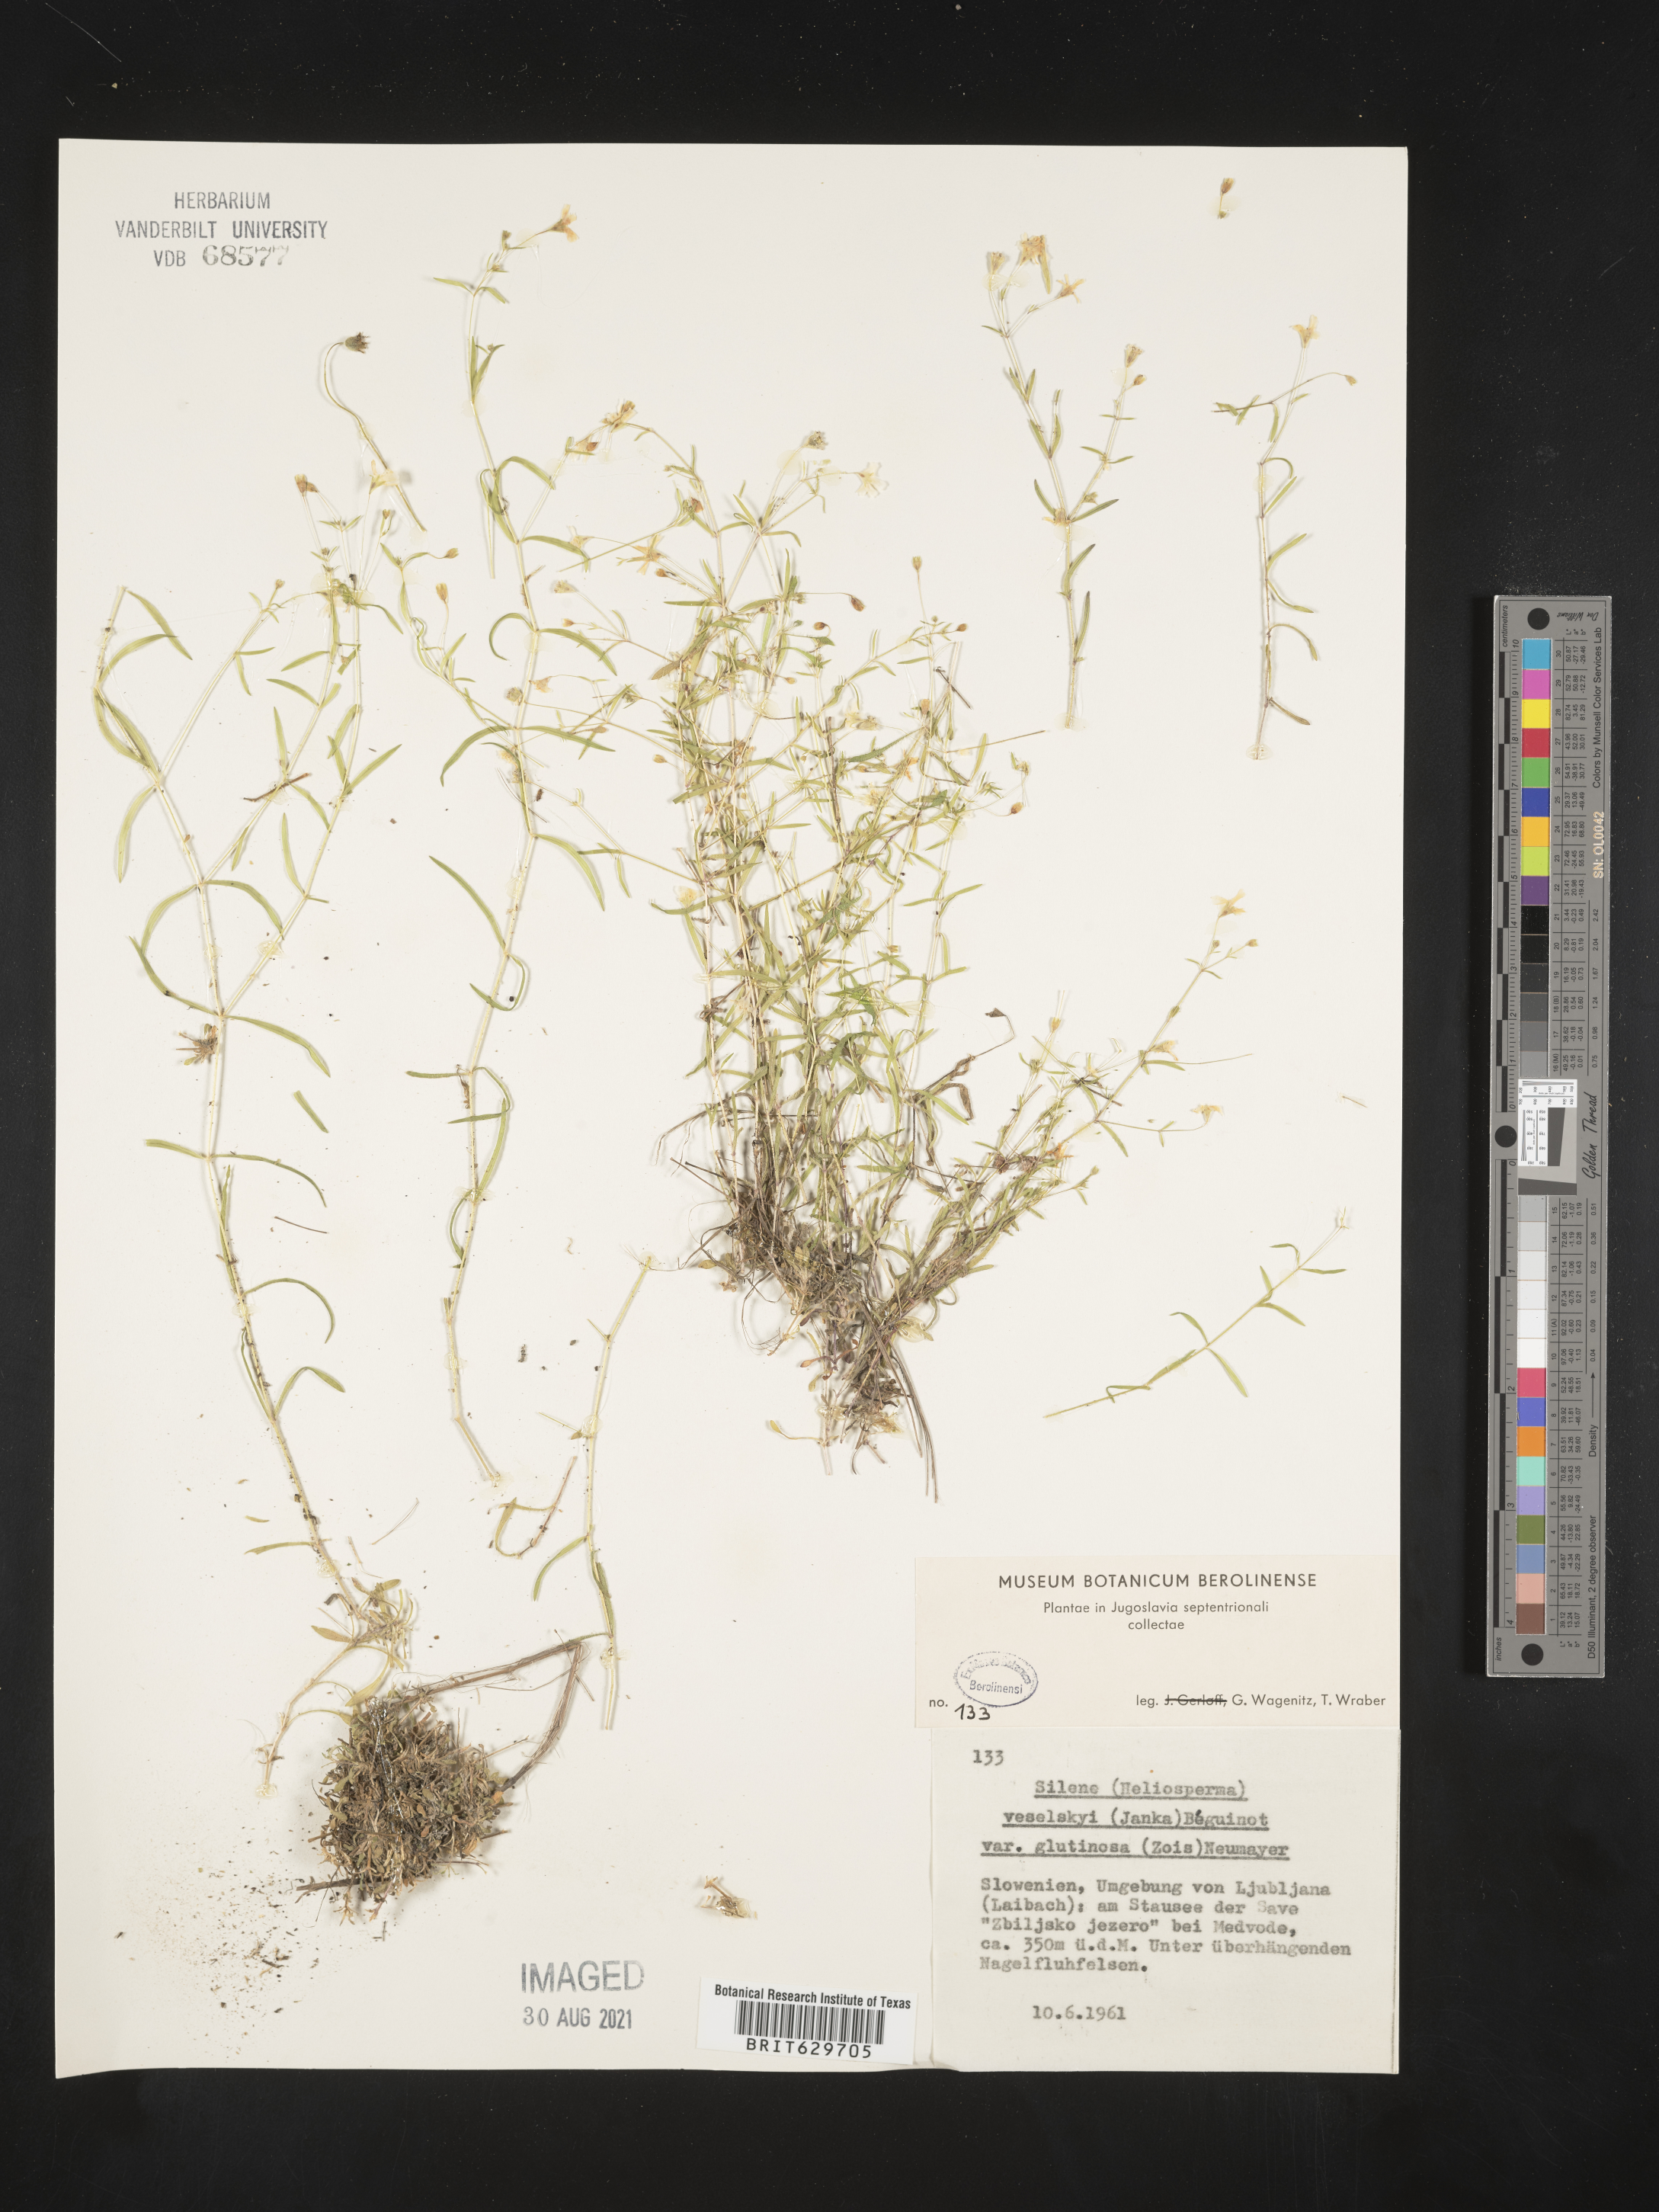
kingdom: Plantae
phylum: Tracheophyta
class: Magnoliopsida
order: Caryophyllales
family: Caryophyllaceae
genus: Silene
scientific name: Silene
